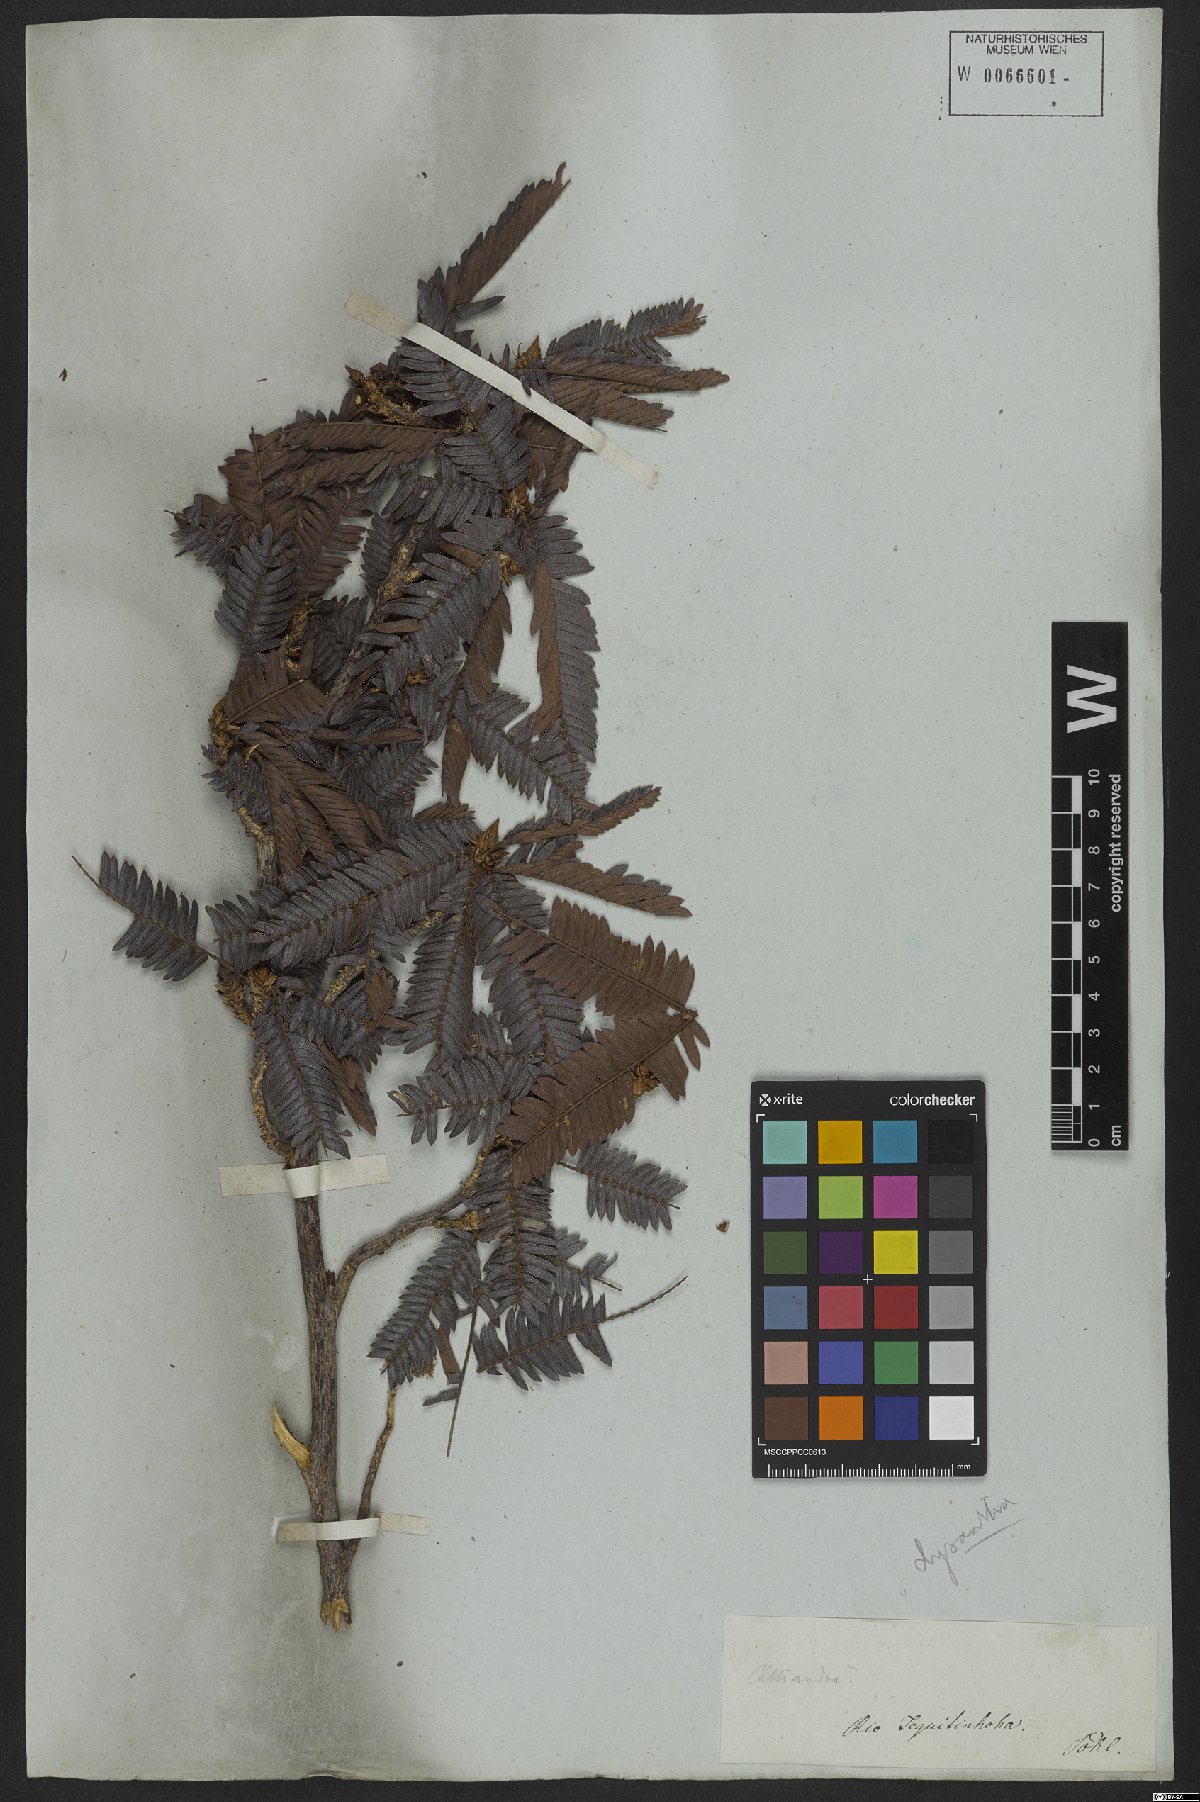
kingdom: Plantae
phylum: Tracheophyta
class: Magnoliopsida
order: Fabales
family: Fabaceae
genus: Calliandra
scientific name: Calliandra dysantha
